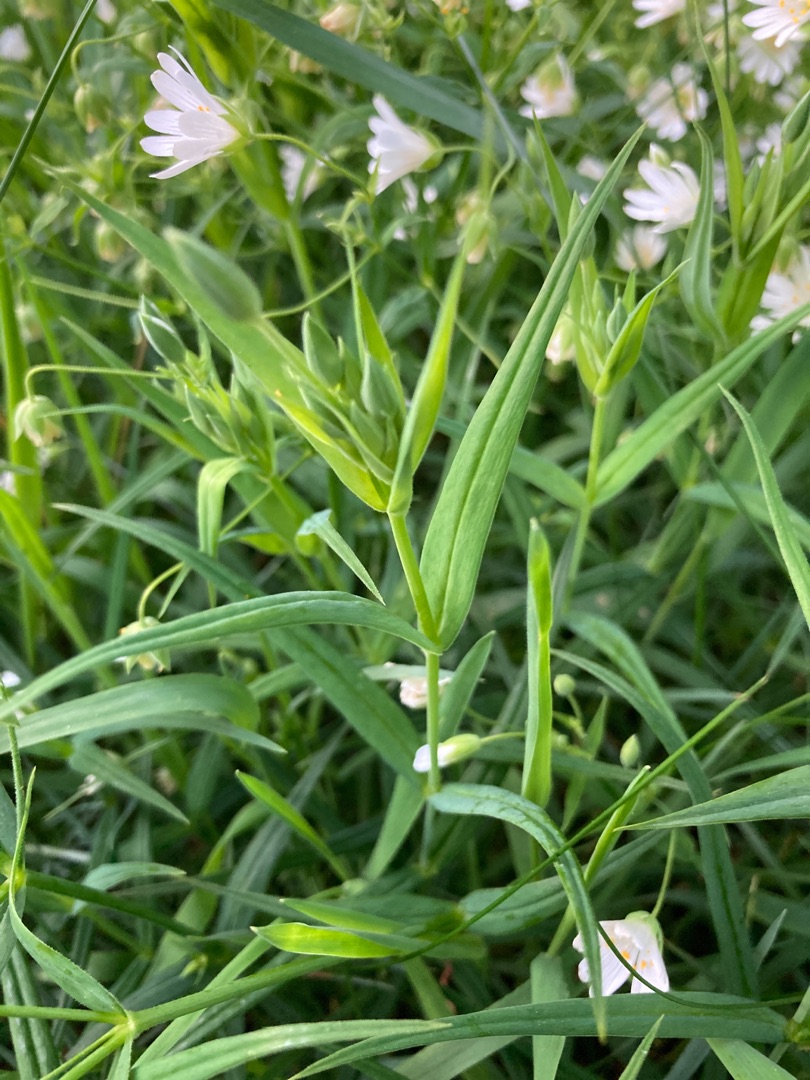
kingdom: Plantae
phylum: Tracheophyta
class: Magnoliopsida
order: Caryophyllales
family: Caryophyllaceae
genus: Rabelera
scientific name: Rabelera holostea
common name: Stor fladstjerne
